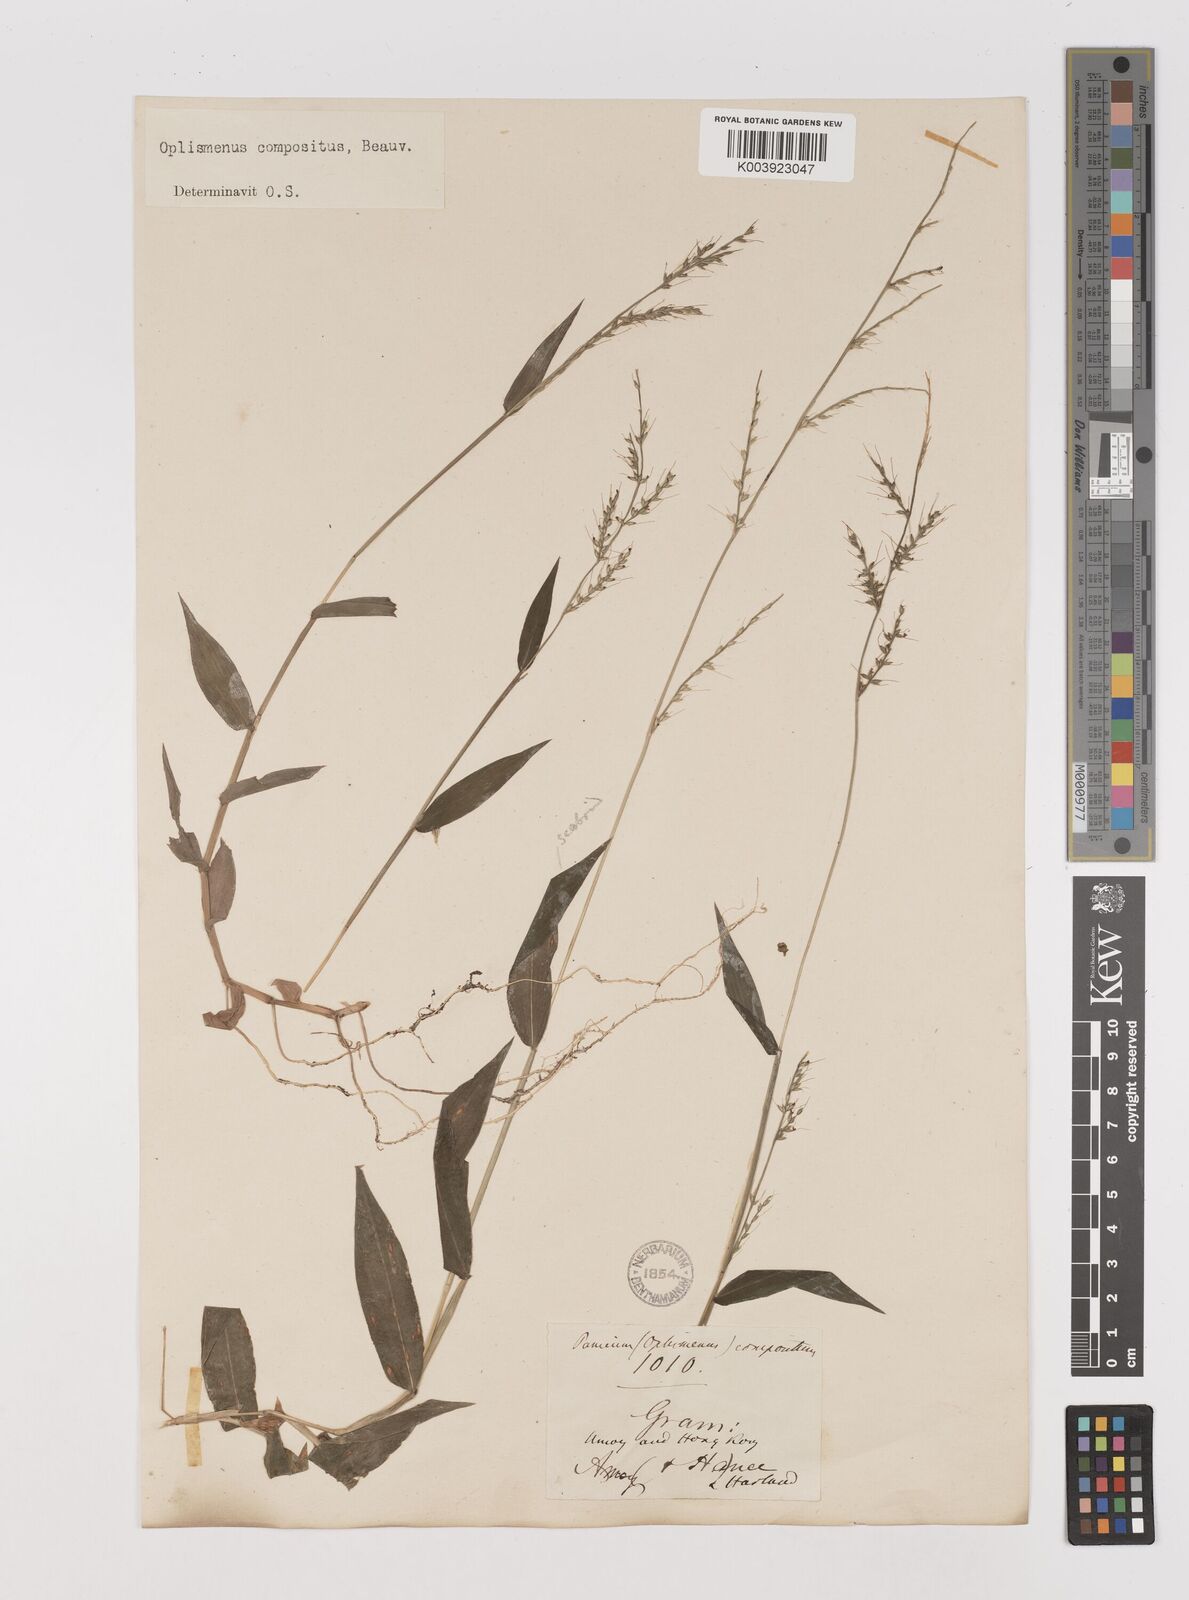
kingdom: Plantae
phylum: Tracheophyta
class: Liliopsida
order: Poales
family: Poaceae
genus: Oplismenus
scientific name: Oplismenus compositus
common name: Running mountain grass
